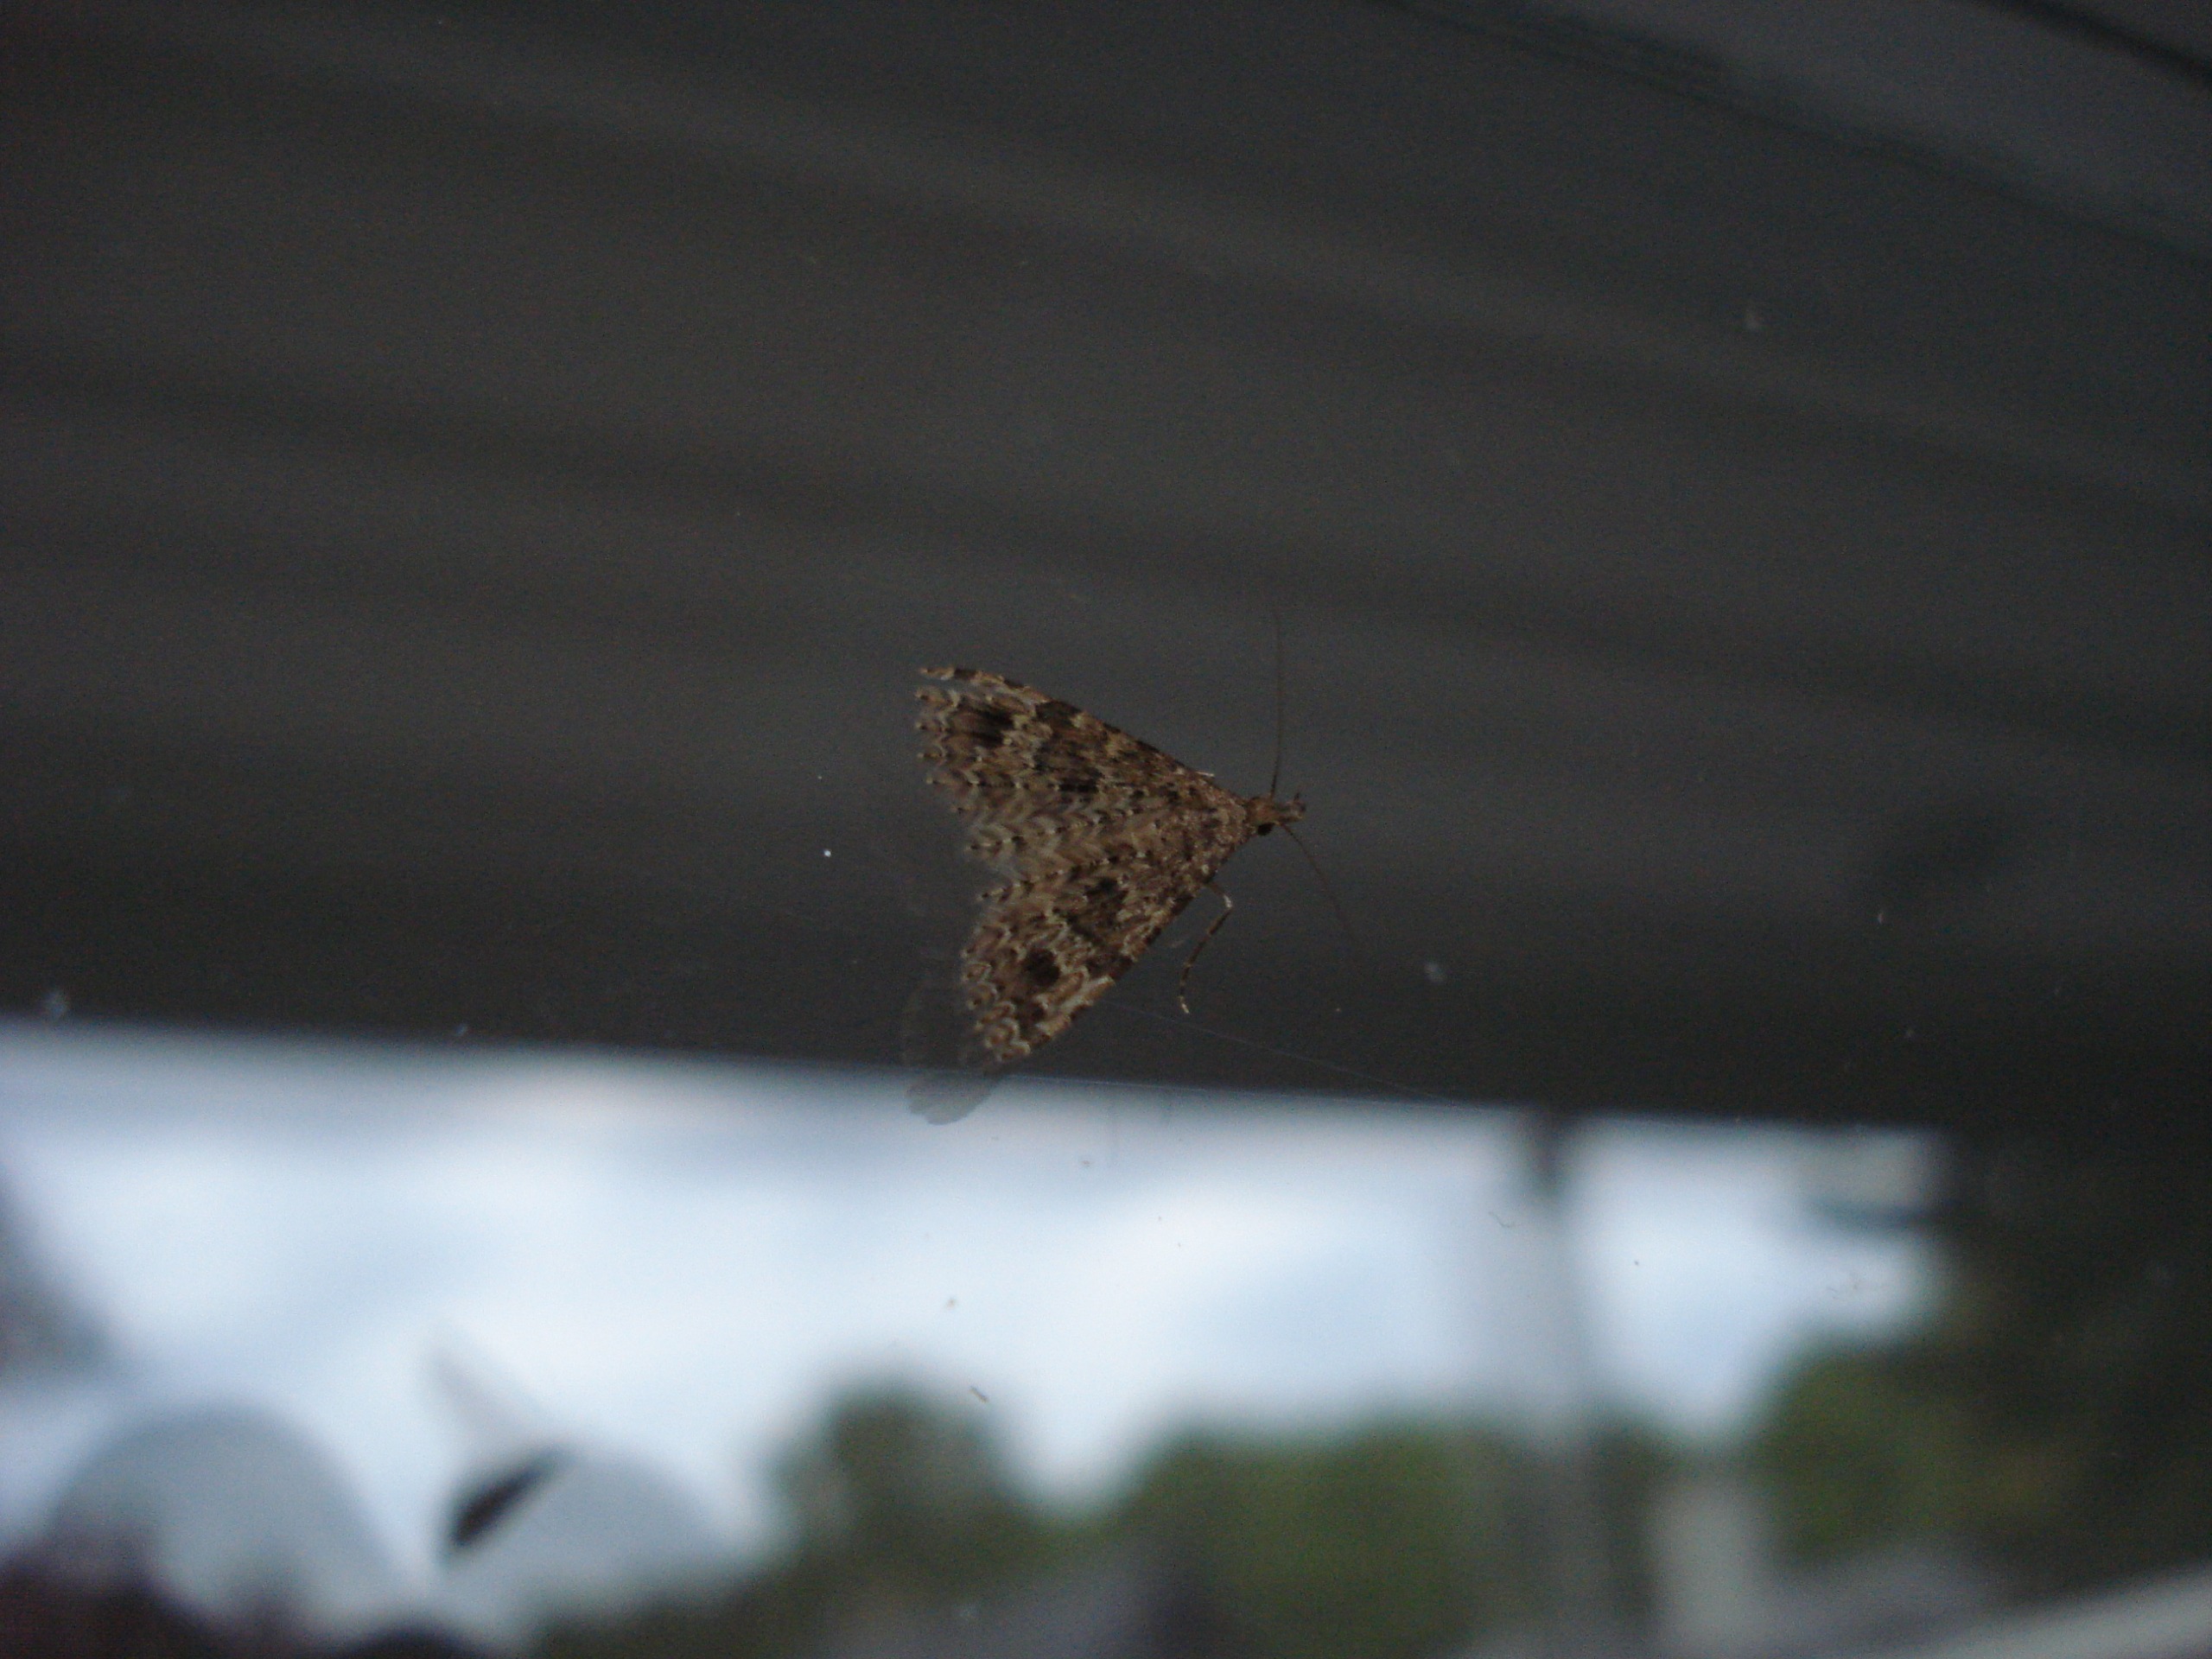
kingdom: Animalia
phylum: Arthropoda
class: Insecta
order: Lepidoptera
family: Alucitidae
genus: Alucita
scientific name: Alucita hexadactyla
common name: Kaprifoliefjermøl
